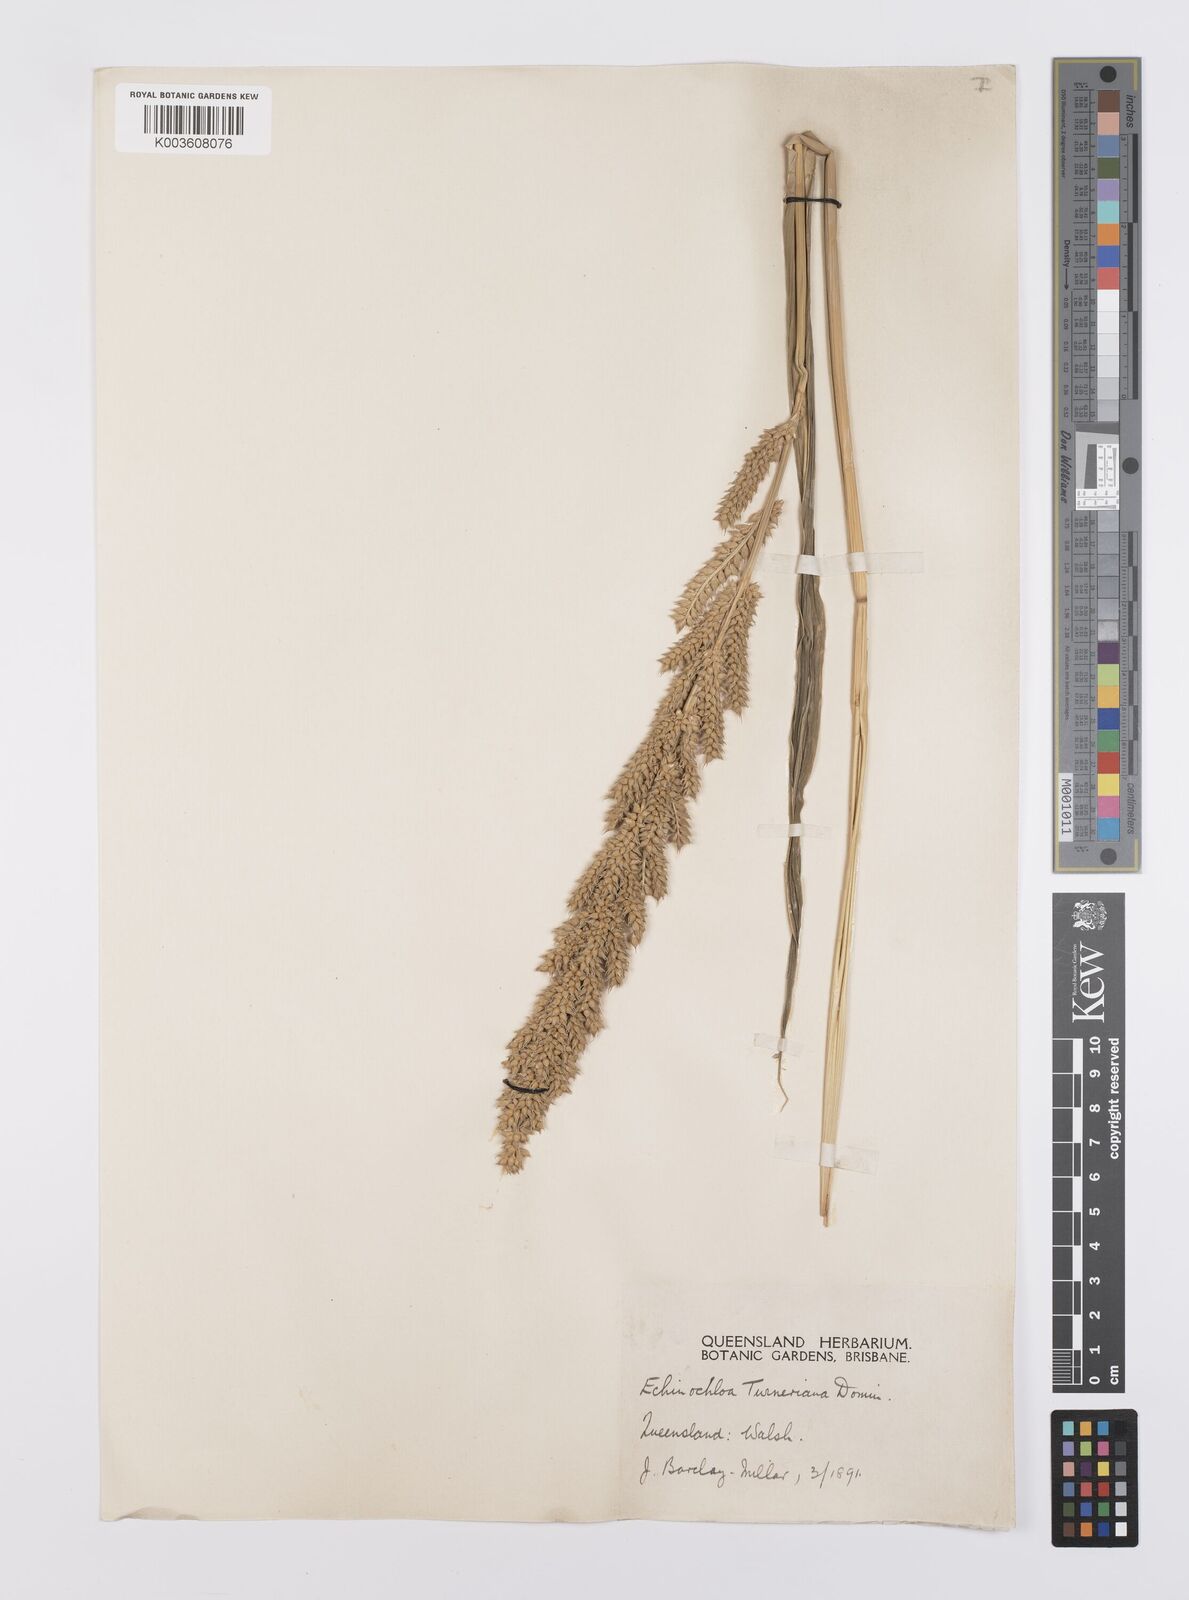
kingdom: Plantae
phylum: Tracheophyta
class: Liliopsida
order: Poales
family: Poaceae
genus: Echinochloa
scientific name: Echinochloa turneriana
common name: Channel millet
